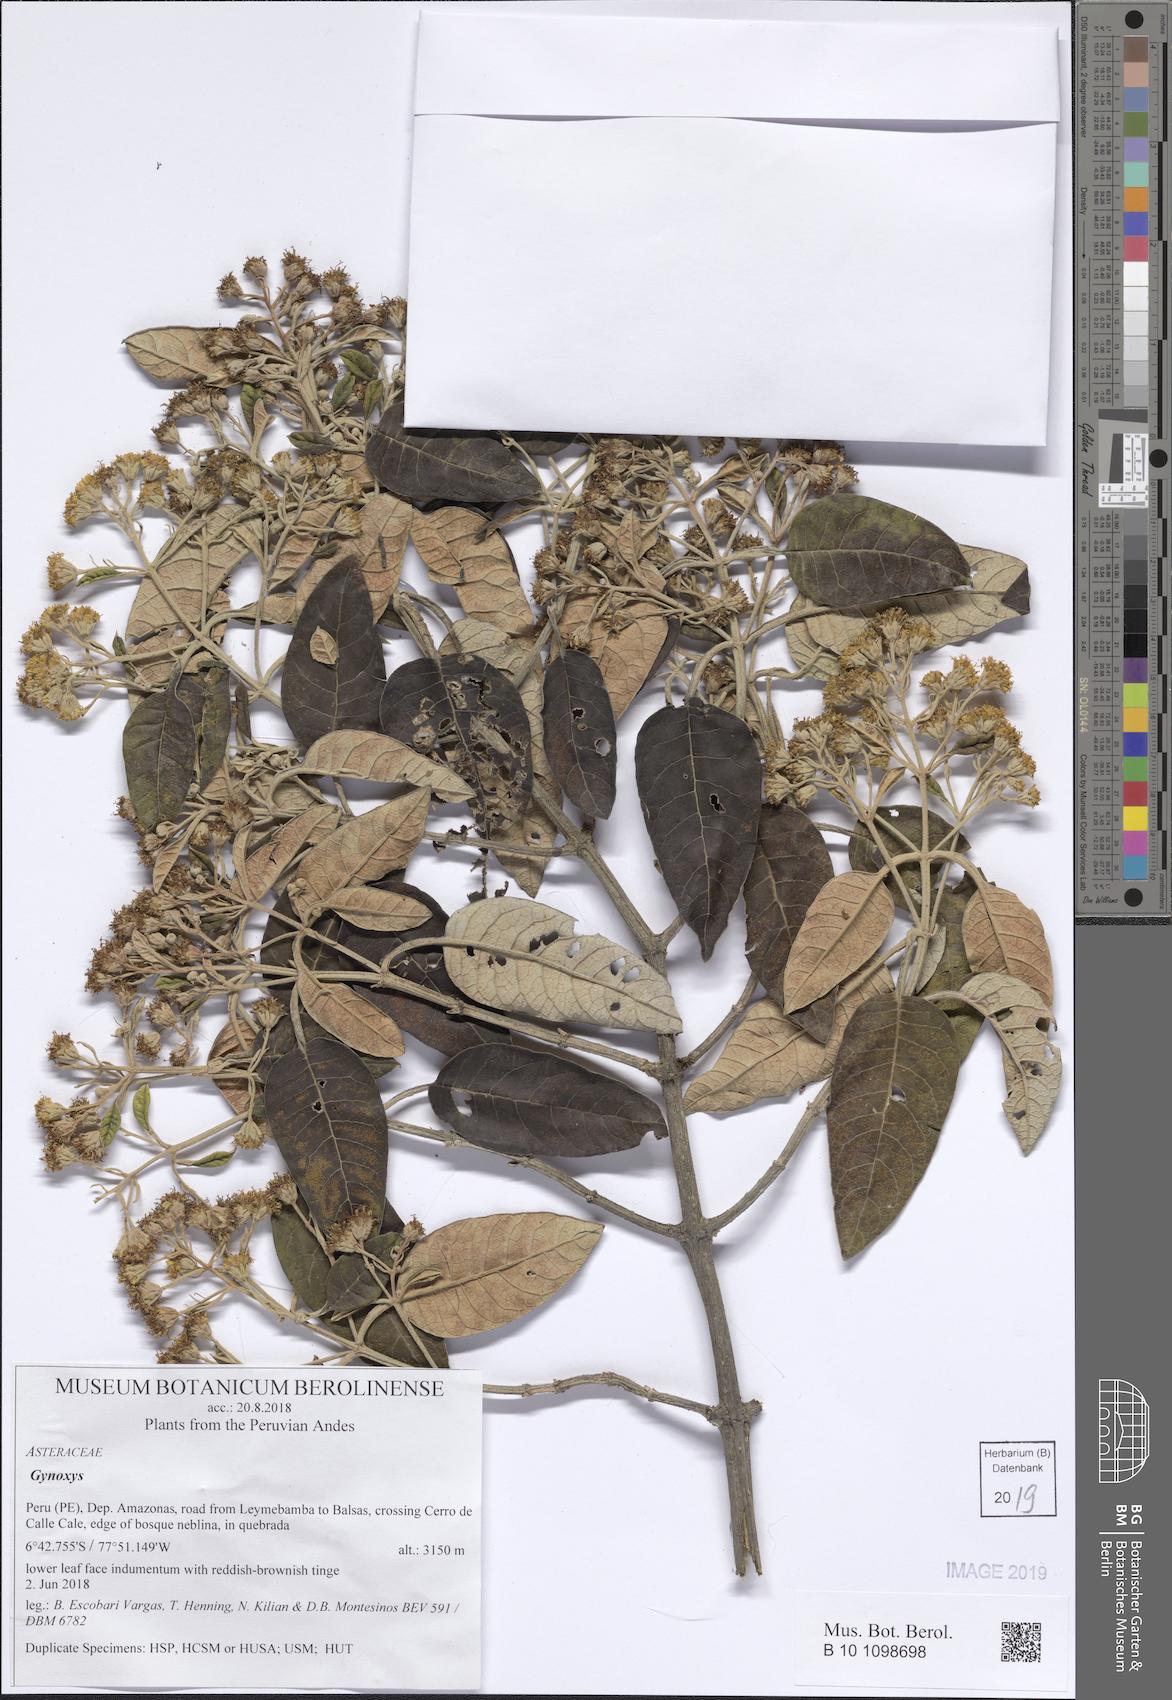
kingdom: Plantae
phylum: Tracheophyta
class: Magnoliopsida
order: Asterales
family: Asteraceae
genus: Gynoxys
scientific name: Gynoxys
